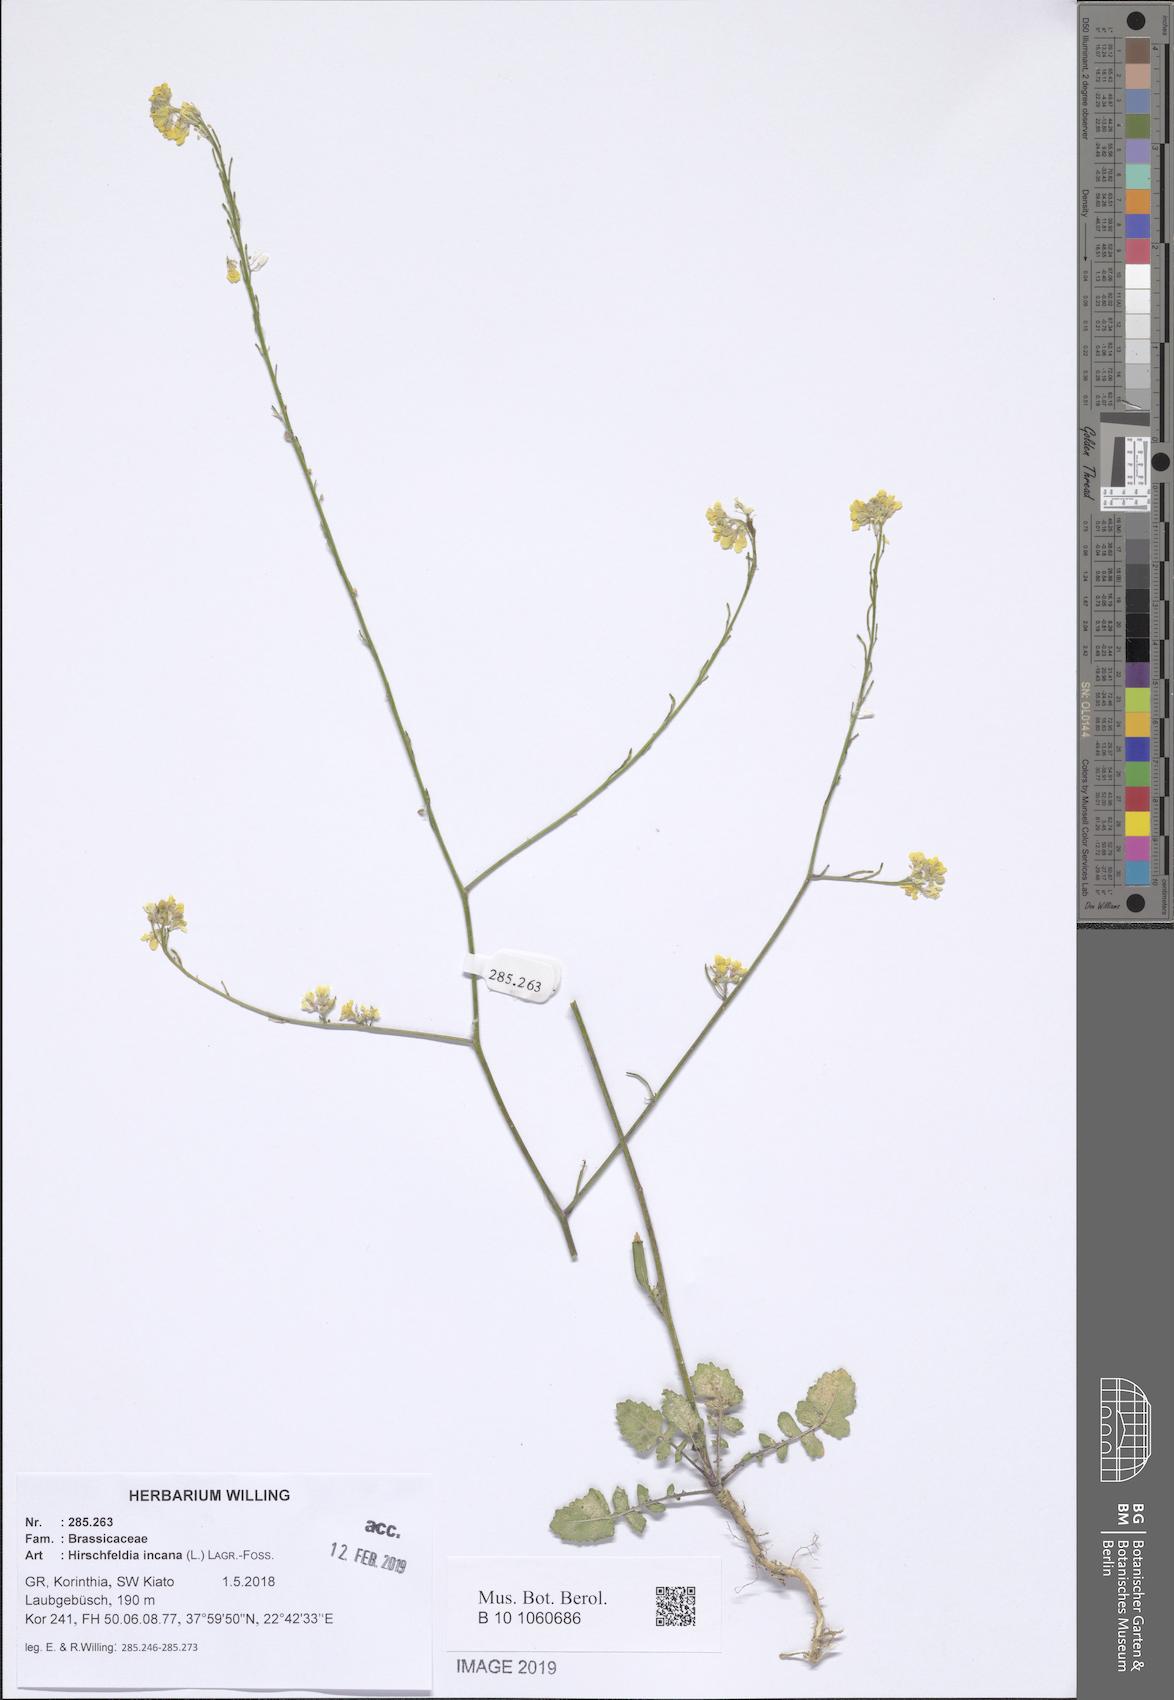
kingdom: Plantae
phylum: Tracheophyta
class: Magnoliopsida
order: Brassicales
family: Brassicaceae
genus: Hirschfeldia
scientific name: Hirschfeldia incana
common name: Hoary mustard
